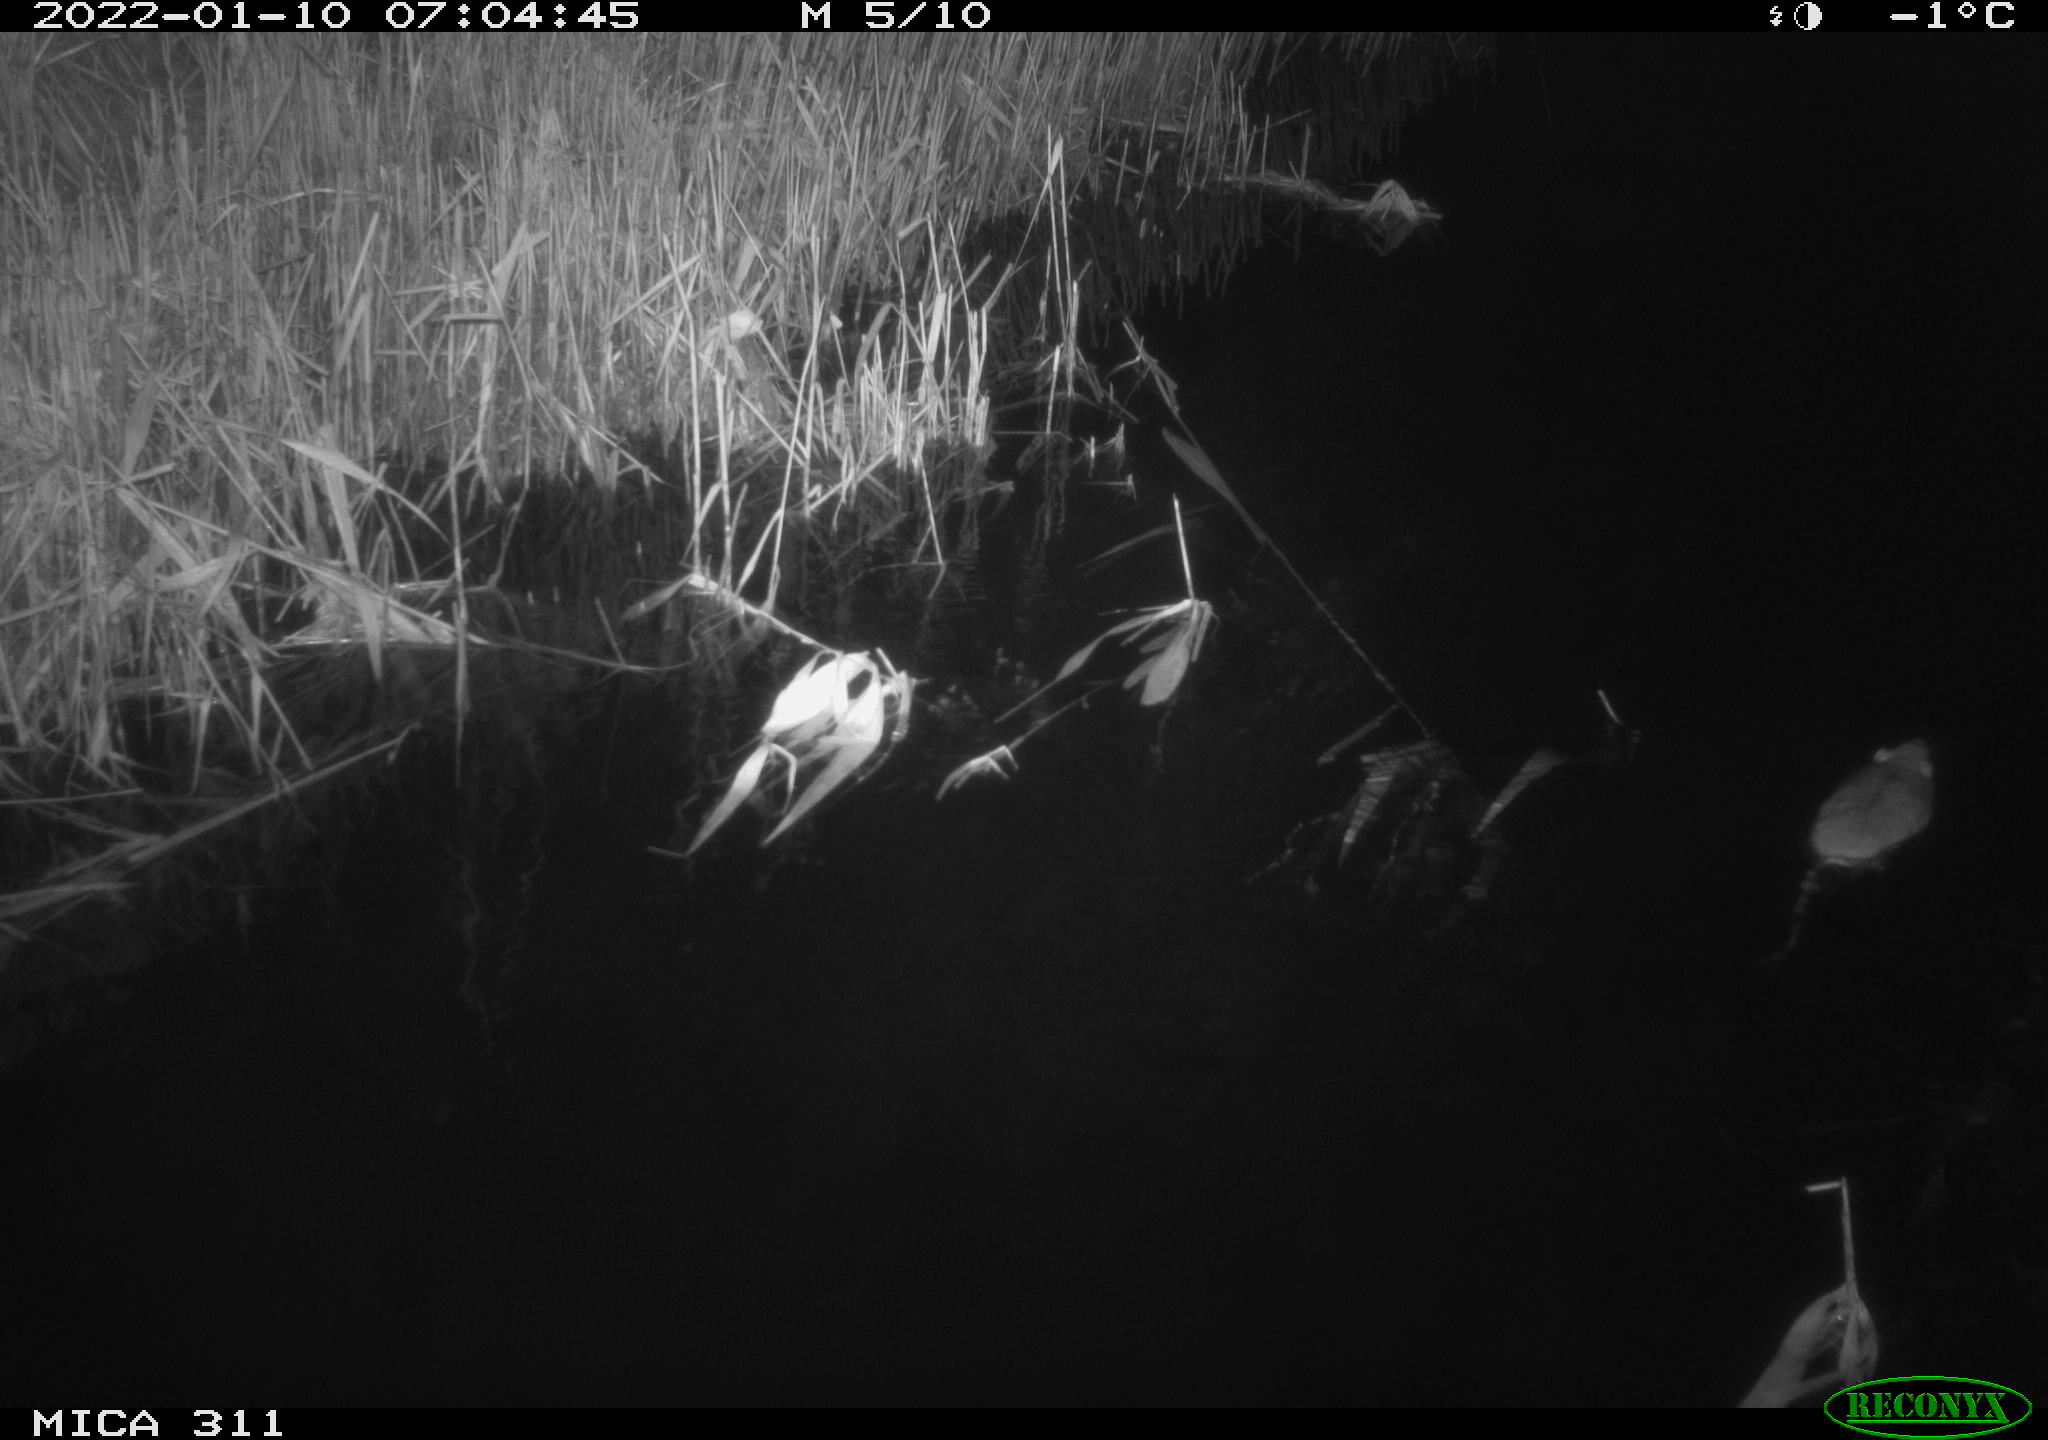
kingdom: Animalia
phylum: Chordata
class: Mammalia
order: Rodentia
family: Muridae
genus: Rattus
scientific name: Rattus norvegicus
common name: Brown rat
